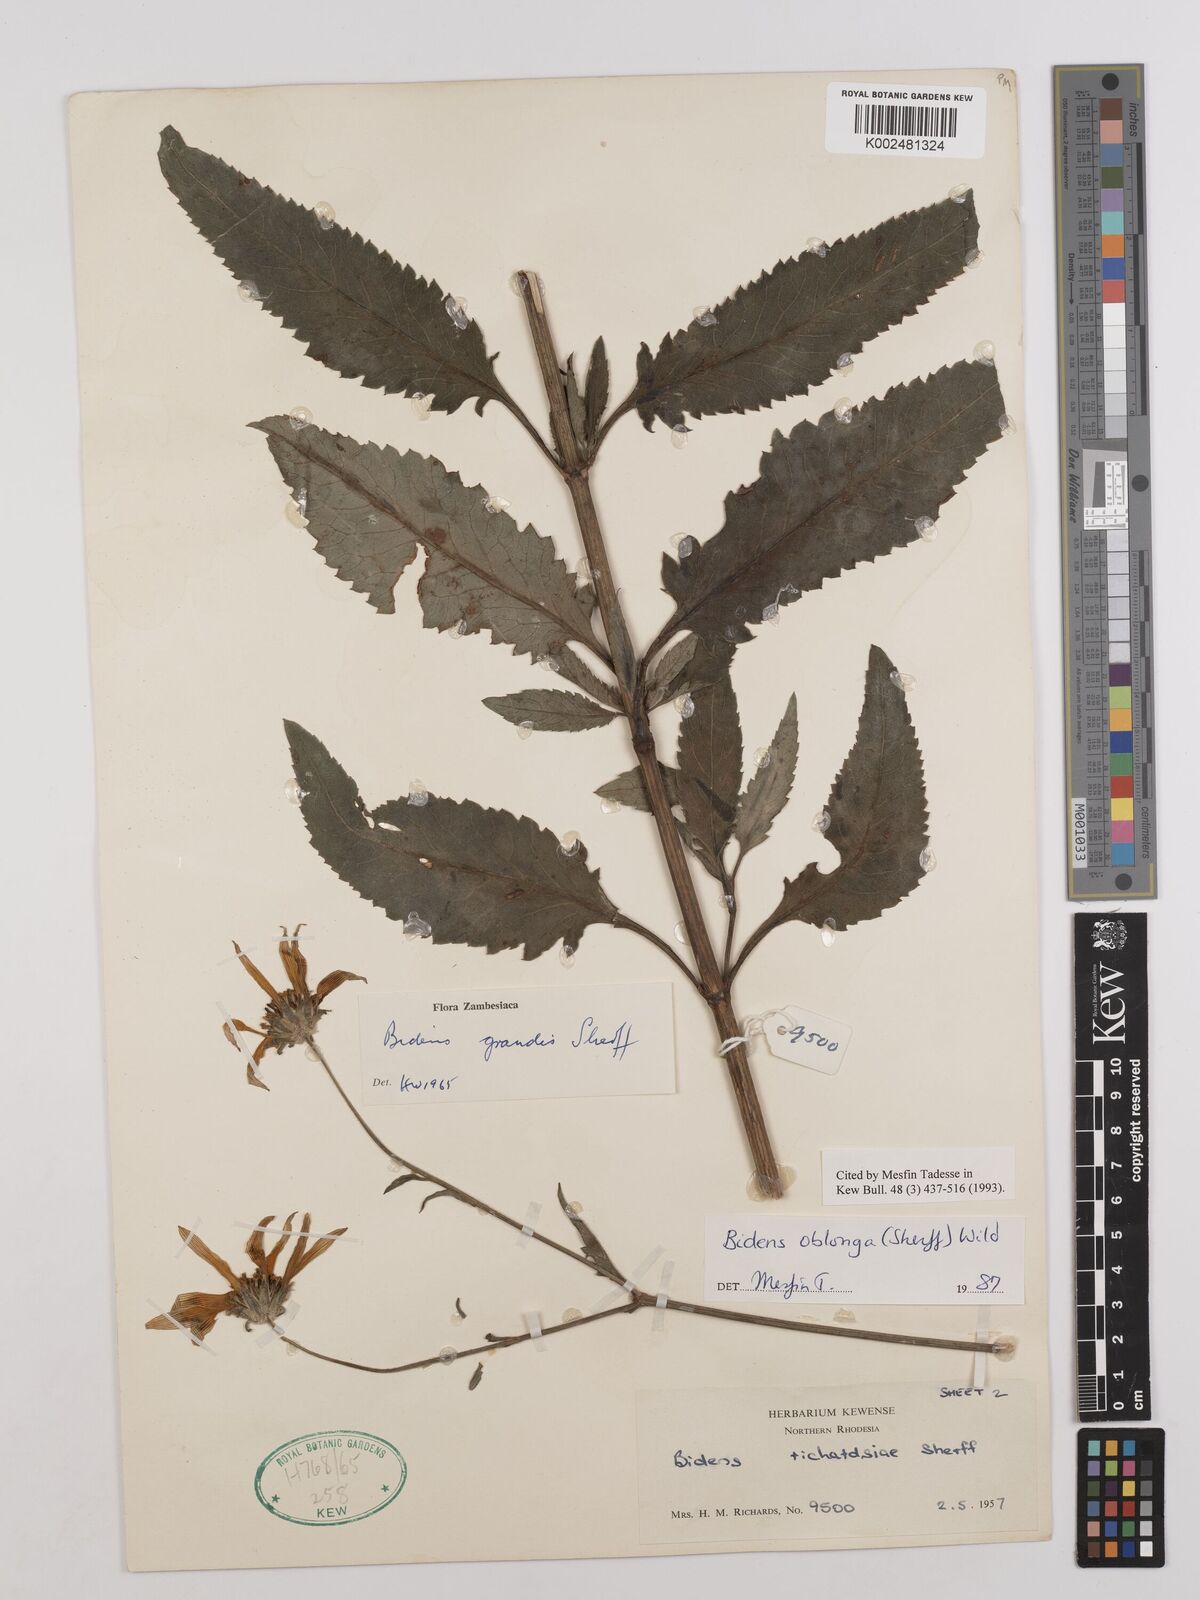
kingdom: Plantae
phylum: Tracheophyta
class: Magnoliopsida
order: Asterales
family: Asteraceae
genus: Bidens
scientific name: Bidens oblonga
